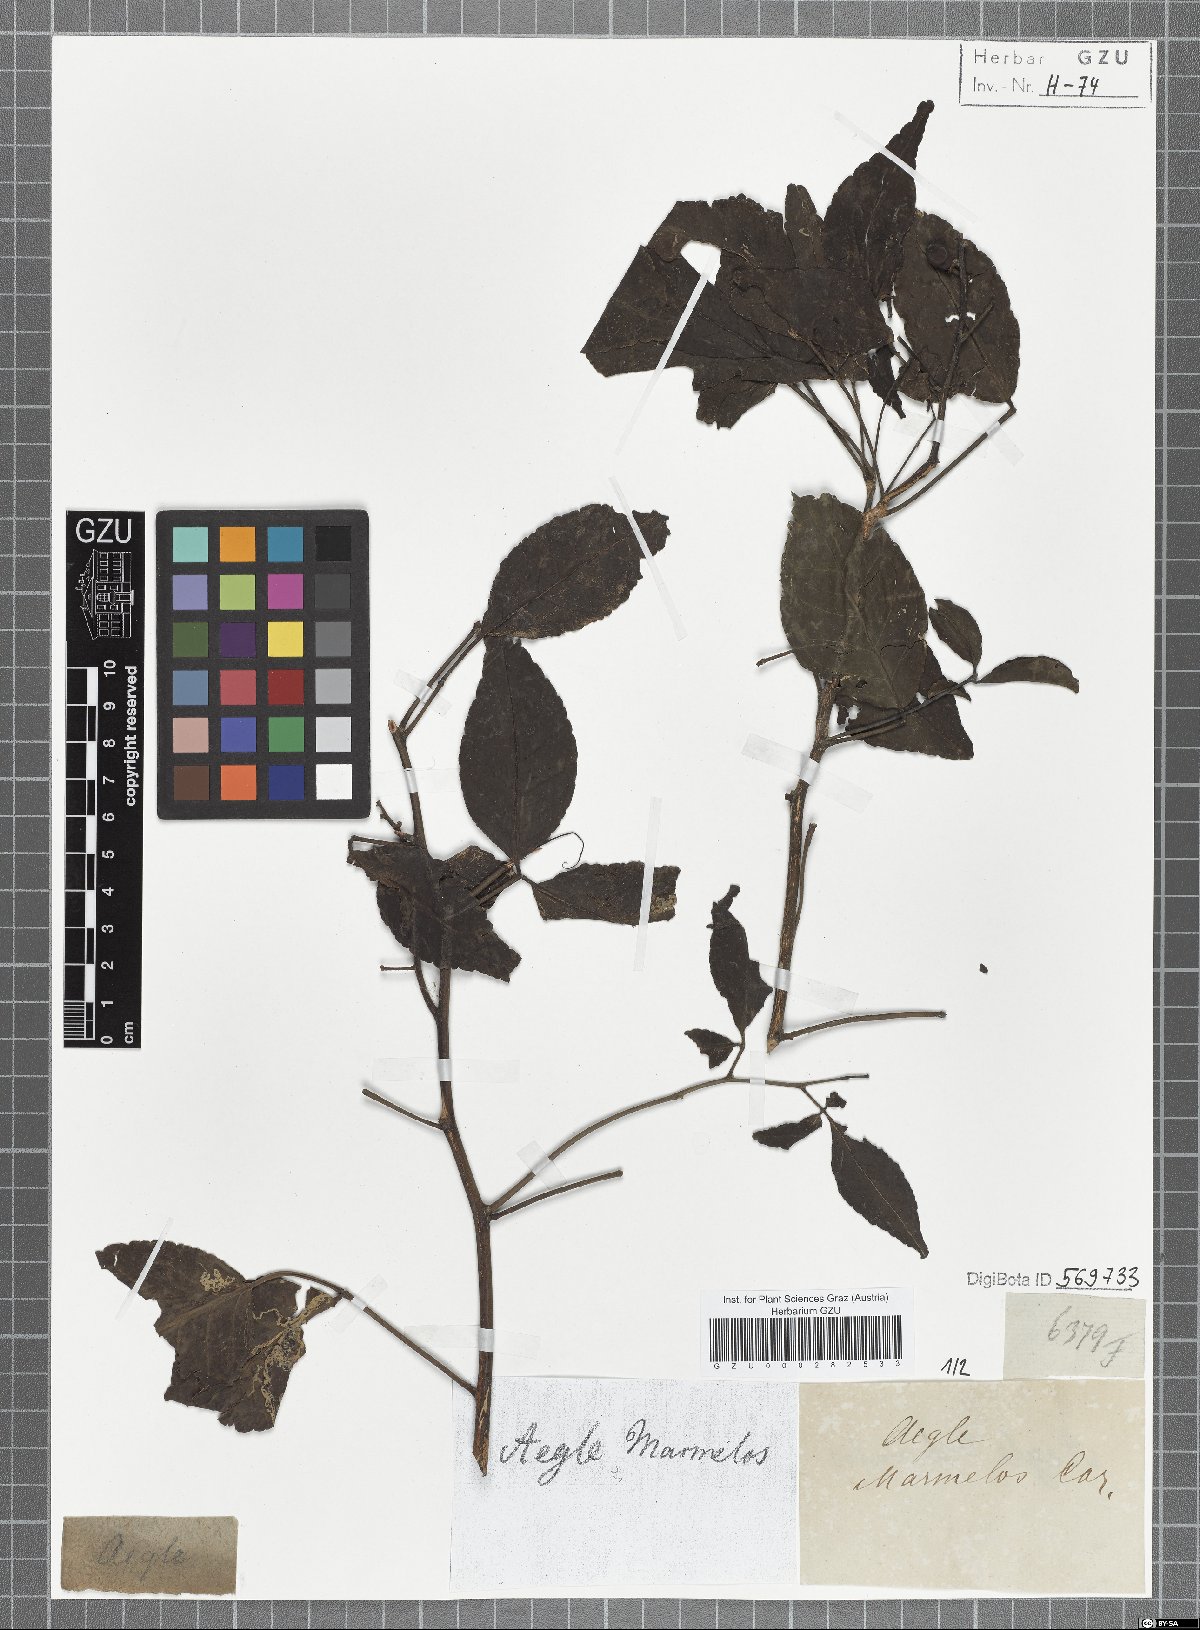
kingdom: Plantae
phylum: Tracheophyta
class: Magnoliopsida
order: Sapindales
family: Rutaceae
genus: Aegle
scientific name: Aegle marmelos
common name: Bael
